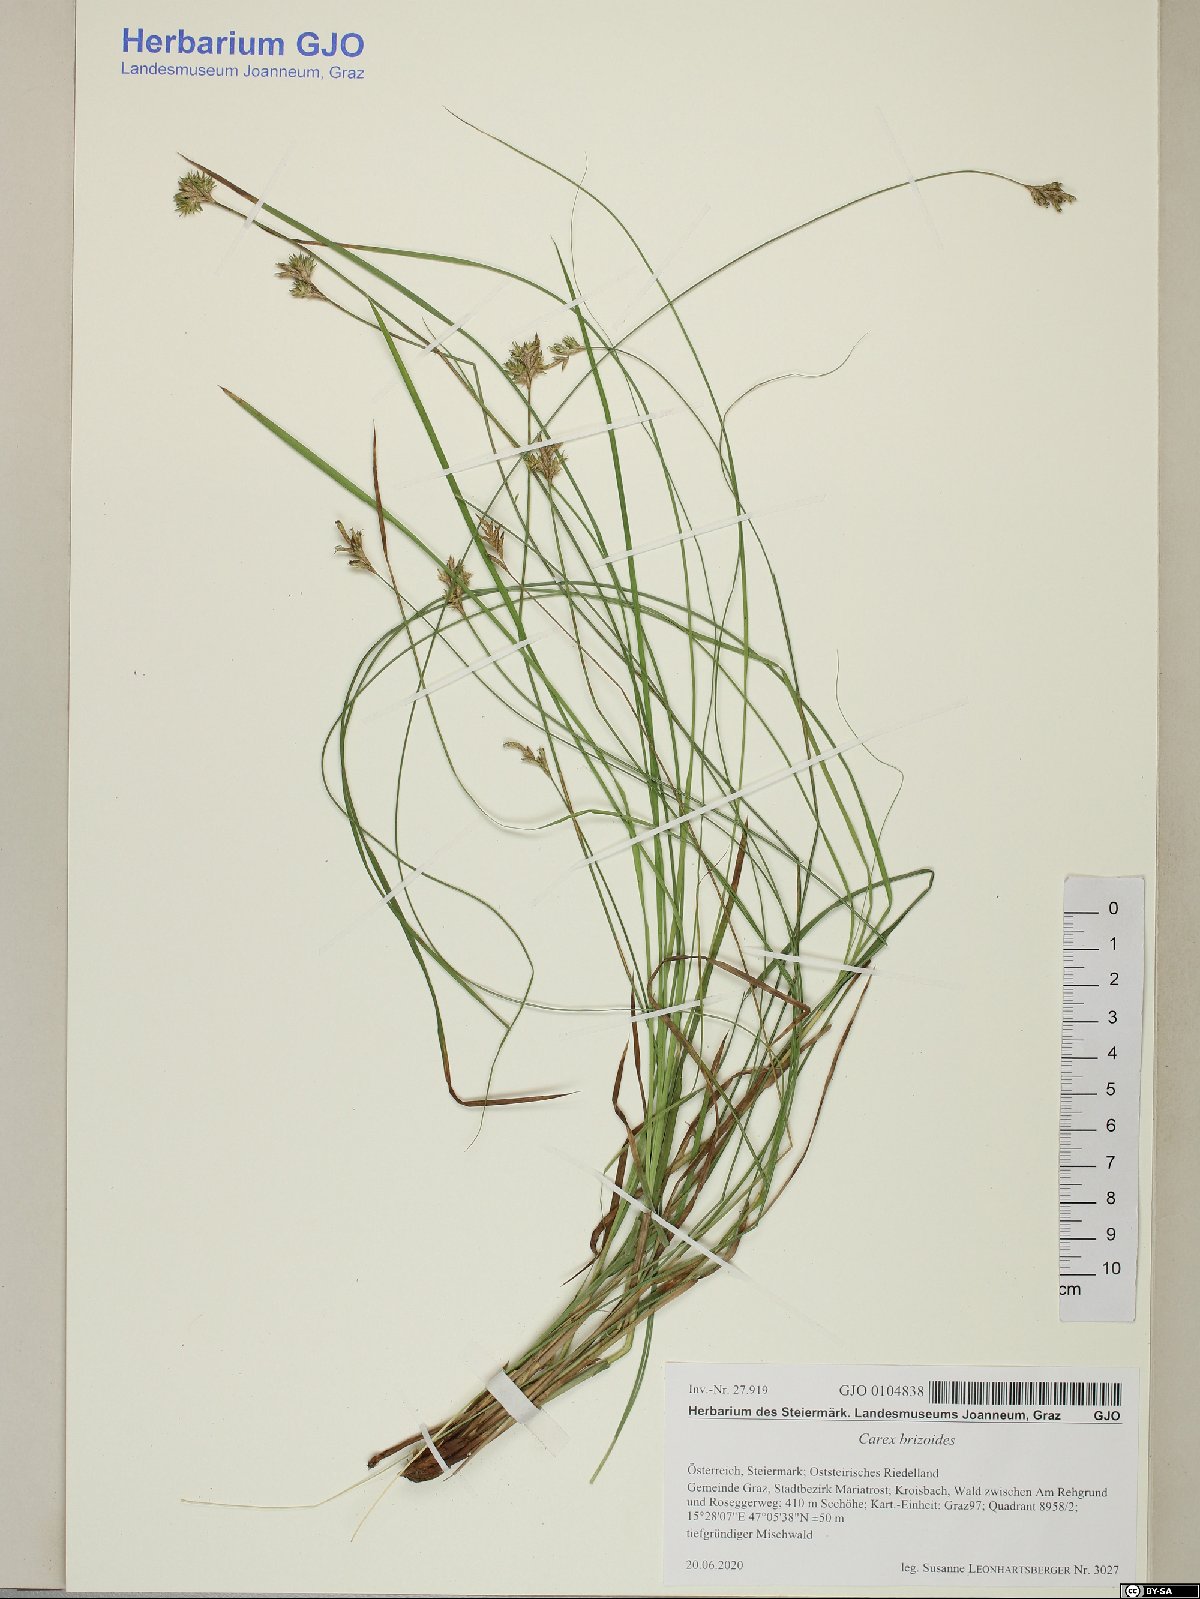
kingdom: Plantae
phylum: Tracheophyta
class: Liliopsida
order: Poales
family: Cyperaceae
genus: Carex
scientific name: Carex brizoides
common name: Quaking-grass sedge
